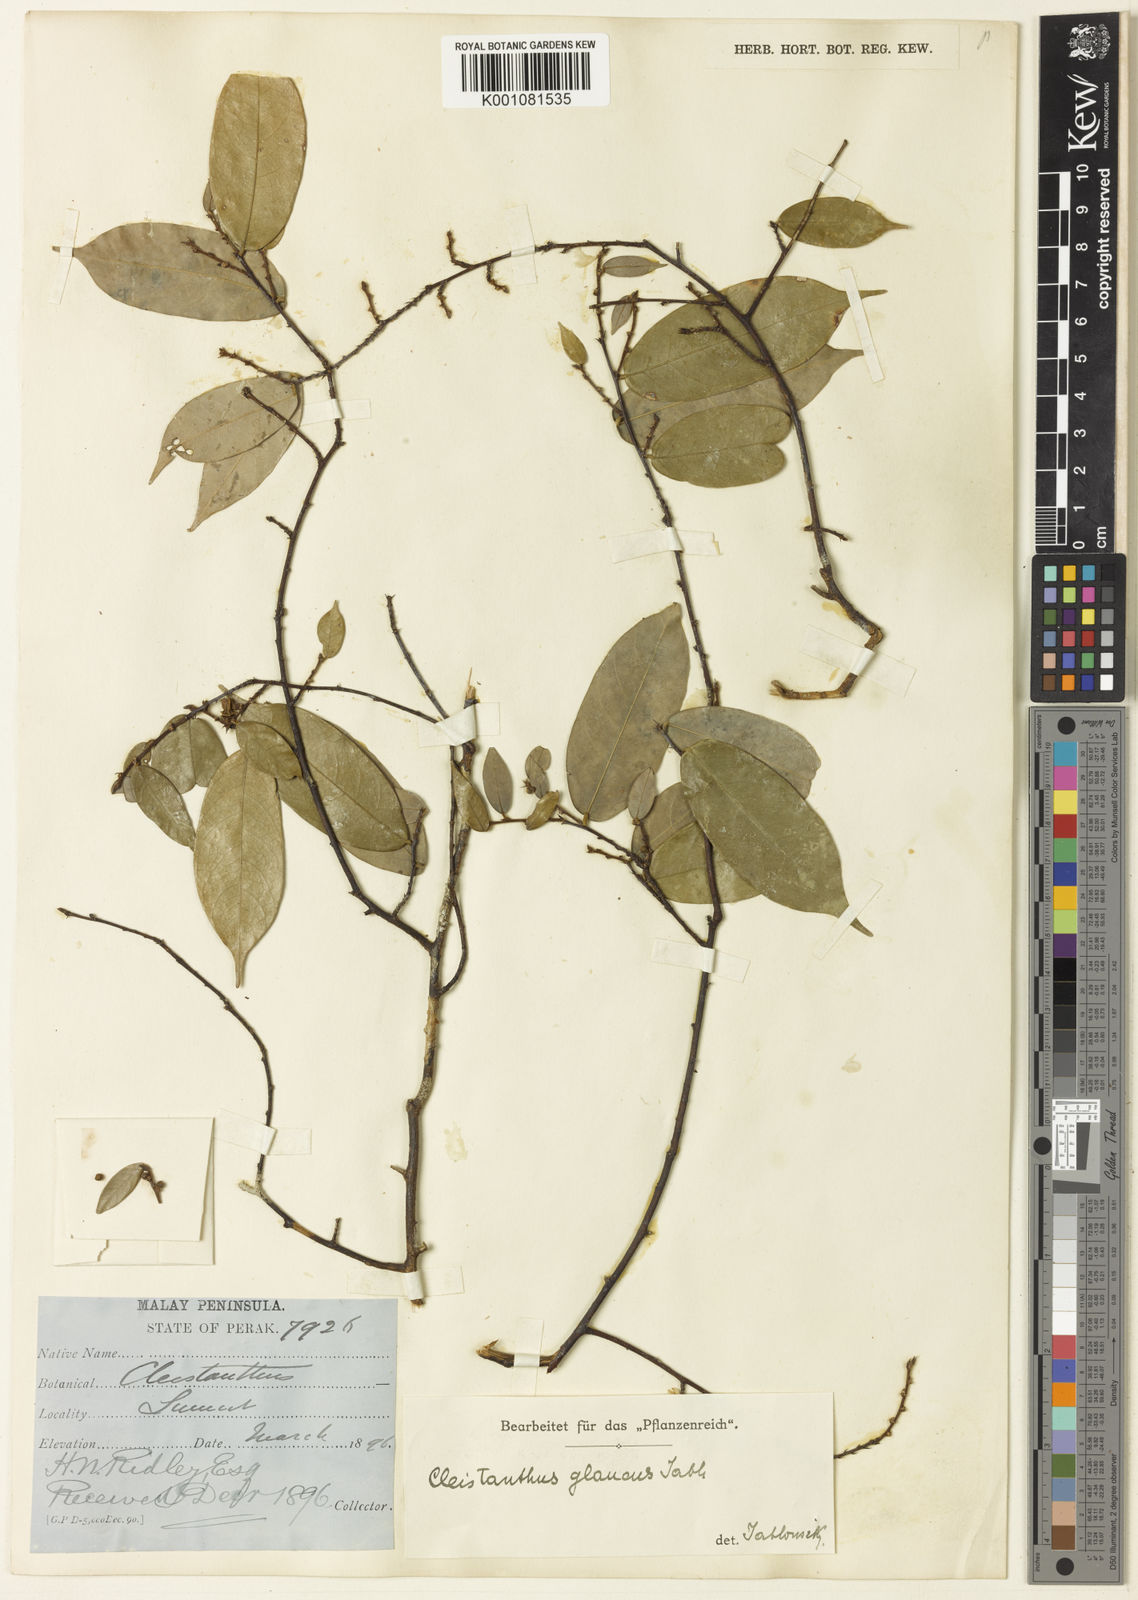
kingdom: Plantae
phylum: Tracheophyta
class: Magnoliopsida
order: Malpighiales
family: Phyllanthaceae
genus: Cleistanthus
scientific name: Cleistanthus baramicus
